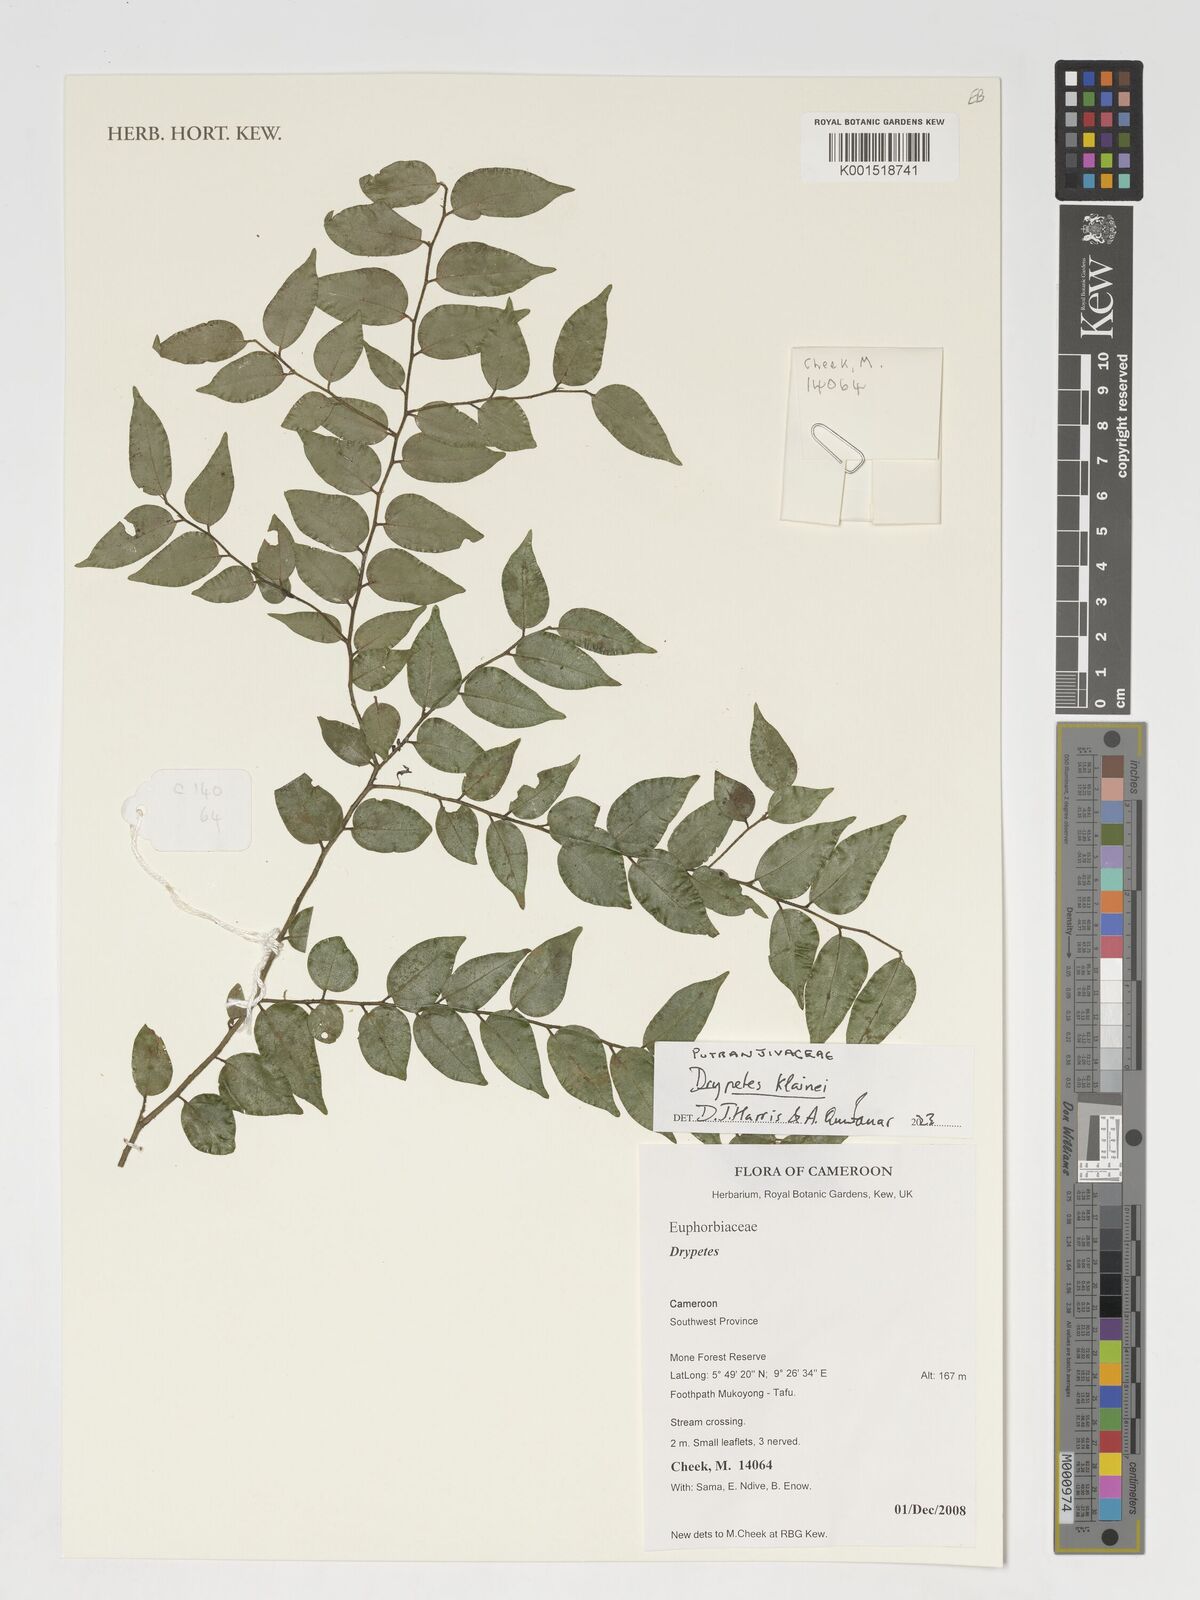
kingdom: Plantae
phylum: Tracheophyta
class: Magnoliopsida
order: Malpighiales
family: Putranjivaceae
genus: Drypetes
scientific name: Drypetes klainei
